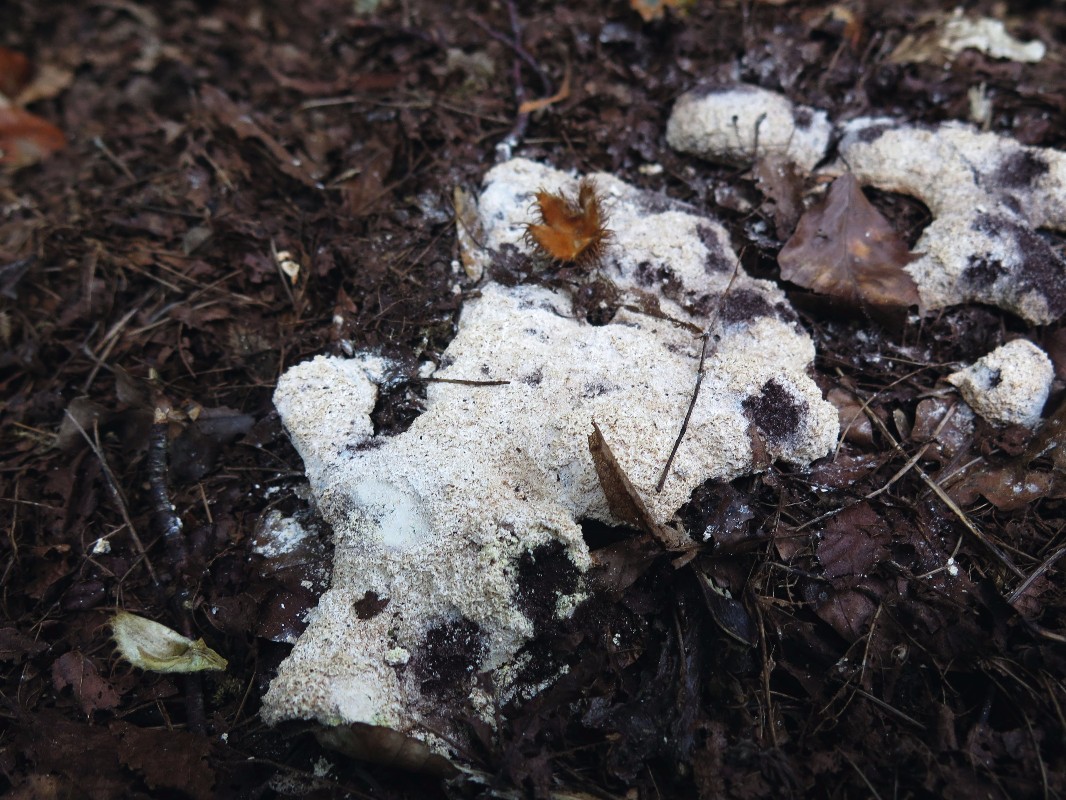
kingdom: Protozoa
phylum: Mycetozoa
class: Myxomycetes
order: Physarales
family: Physaraceae
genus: Fuligo
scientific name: Fuligo
